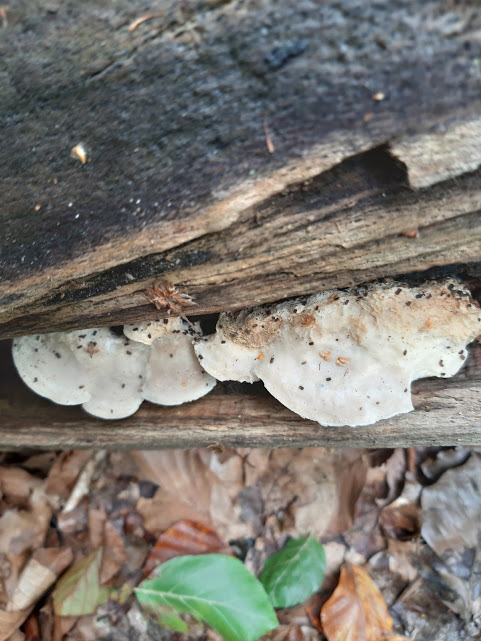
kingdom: Fungi
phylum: Basidiomycota
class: Agaricomycetes
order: Polyporales
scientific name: Polyporales
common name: poresvampordenen
